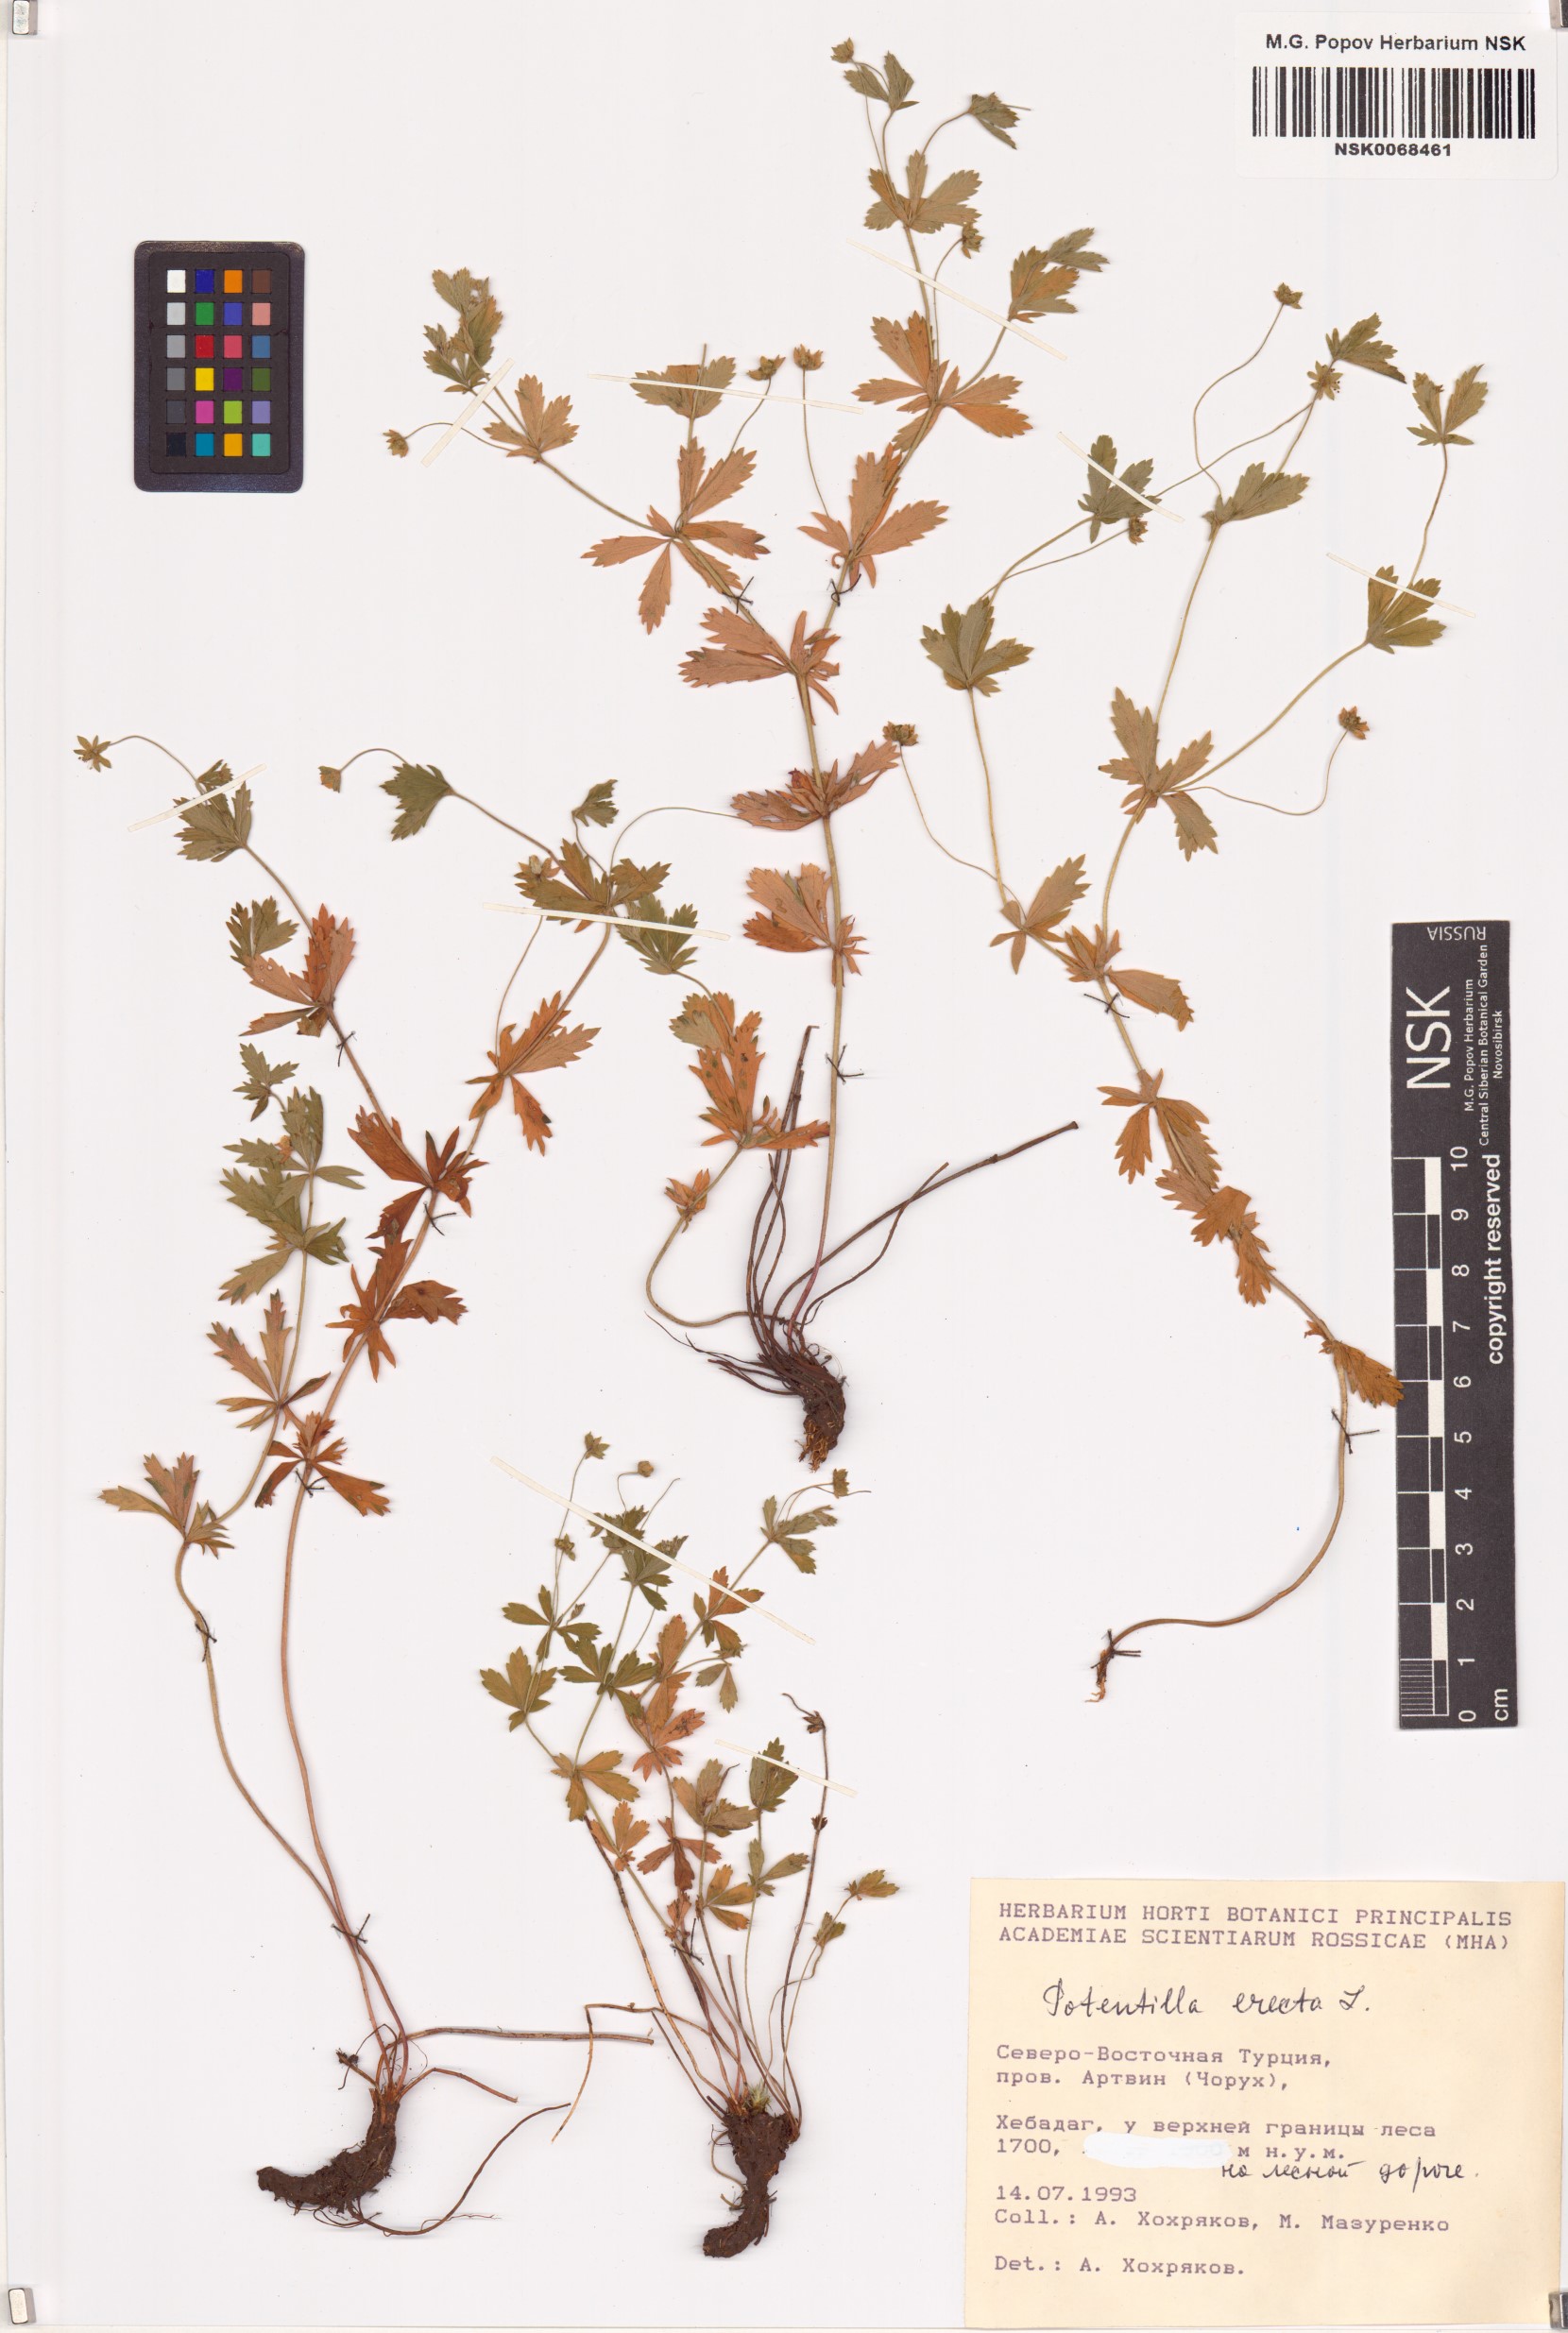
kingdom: Plantae
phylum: Tracheophyta
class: Magnoliopsida
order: Rosales
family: Rosaceae
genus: Potentilla
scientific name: Potentilla erecta
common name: Tormentil
